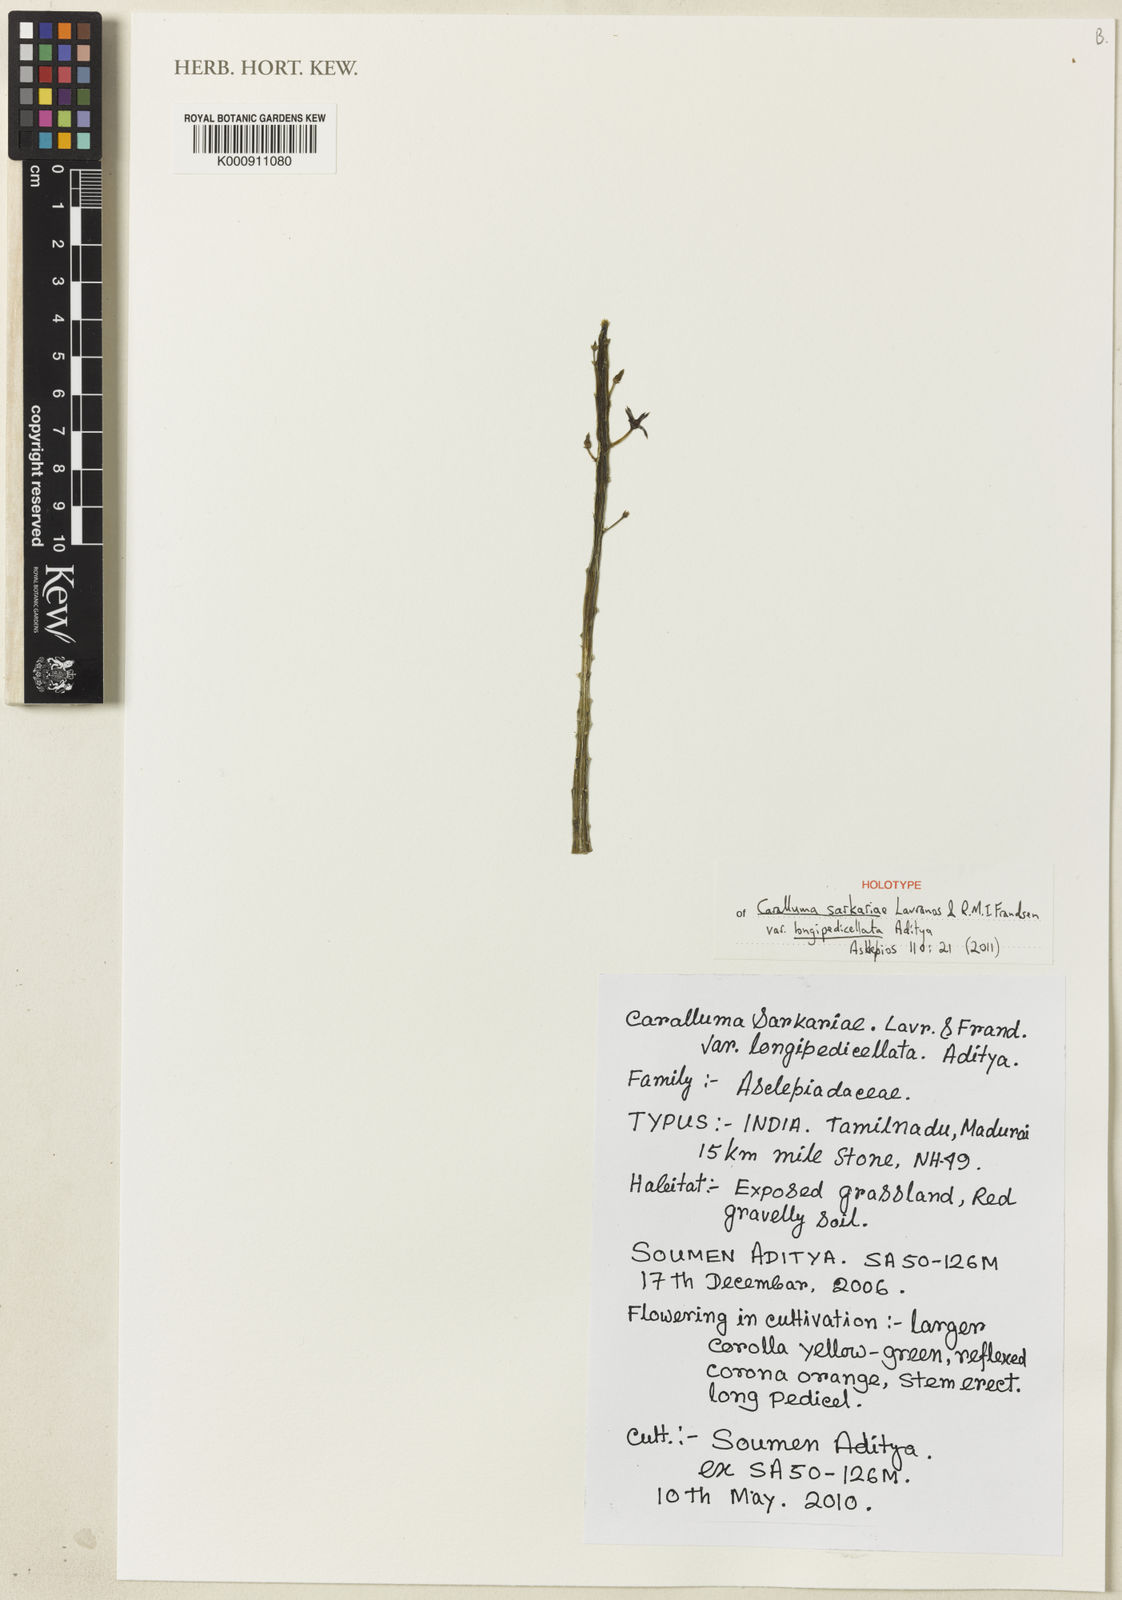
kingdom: Plantae
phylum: Tracheophyta
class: Magnoliopsida
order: Gentianales
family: Apocynaceae
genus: Ceropegia
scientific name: Ceropegia sarkariae
